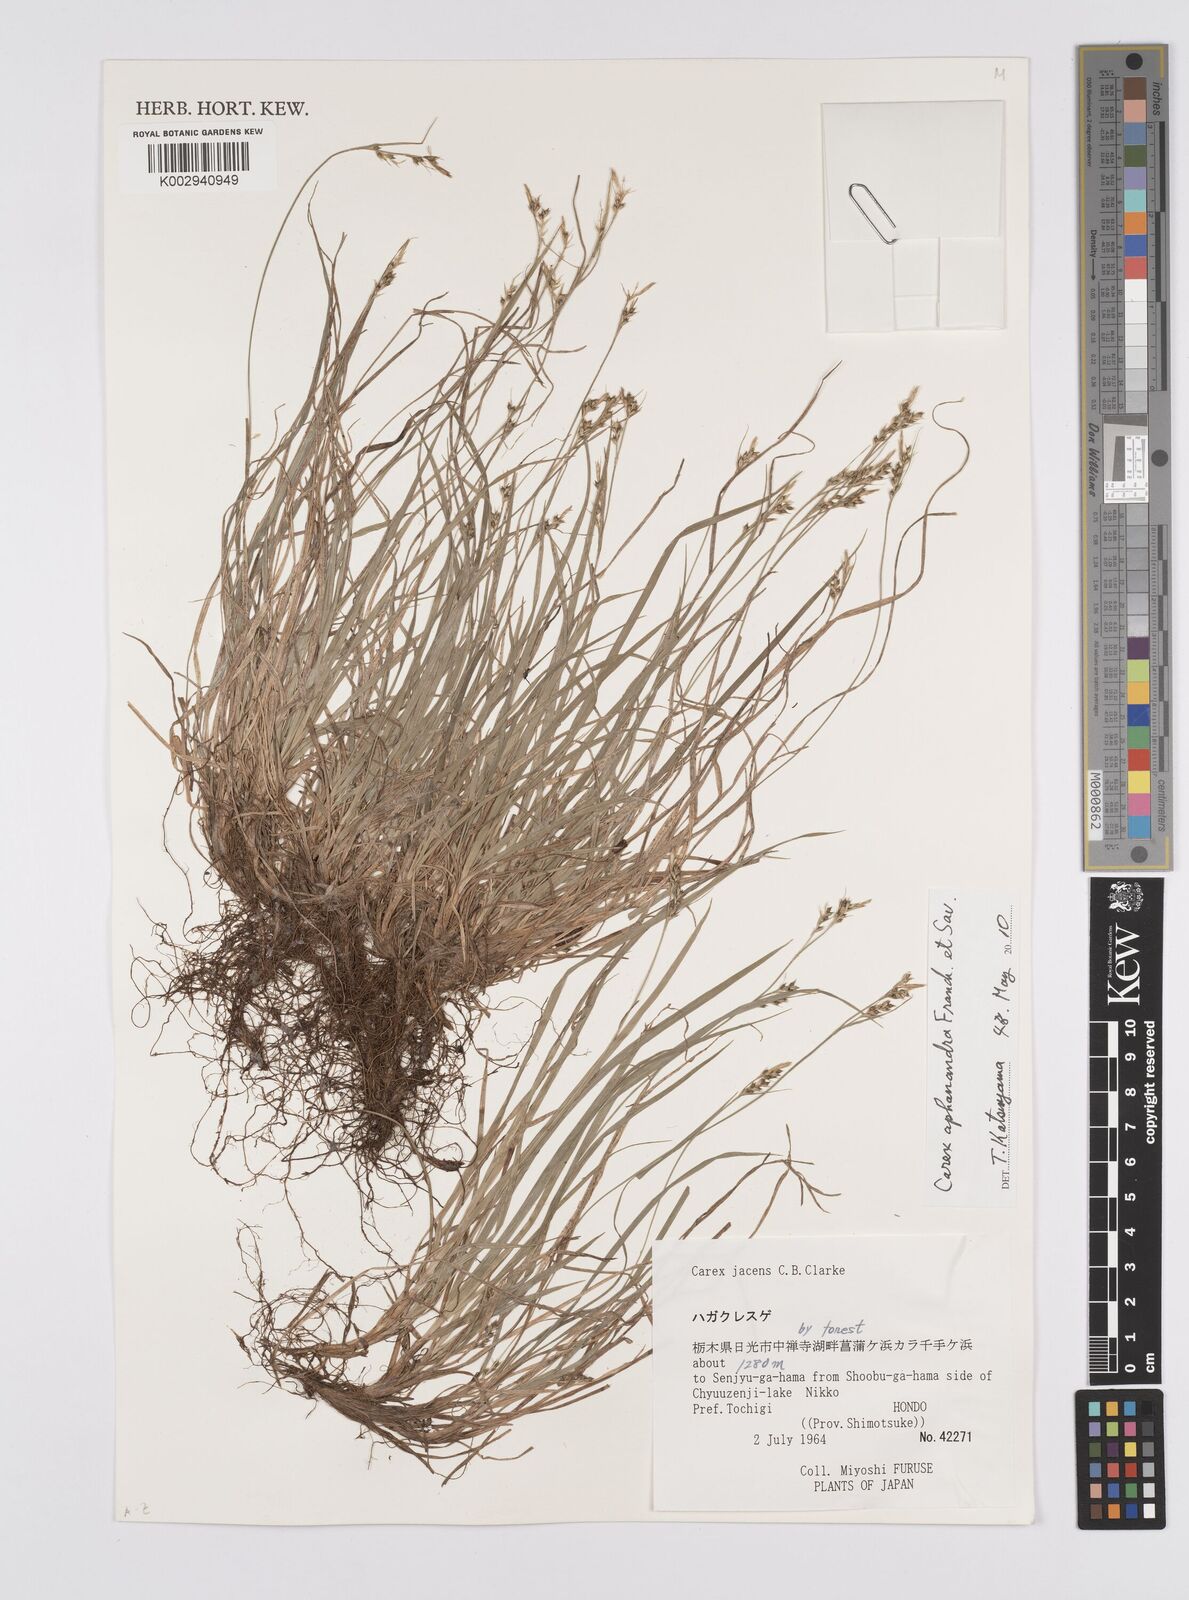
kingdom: Plantae
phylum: Tracheophyta
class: Liliopsida
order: Poales
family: Cyperaceae
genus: Carex
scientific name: Carex breviculmis
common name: Asian shortstem sedge
